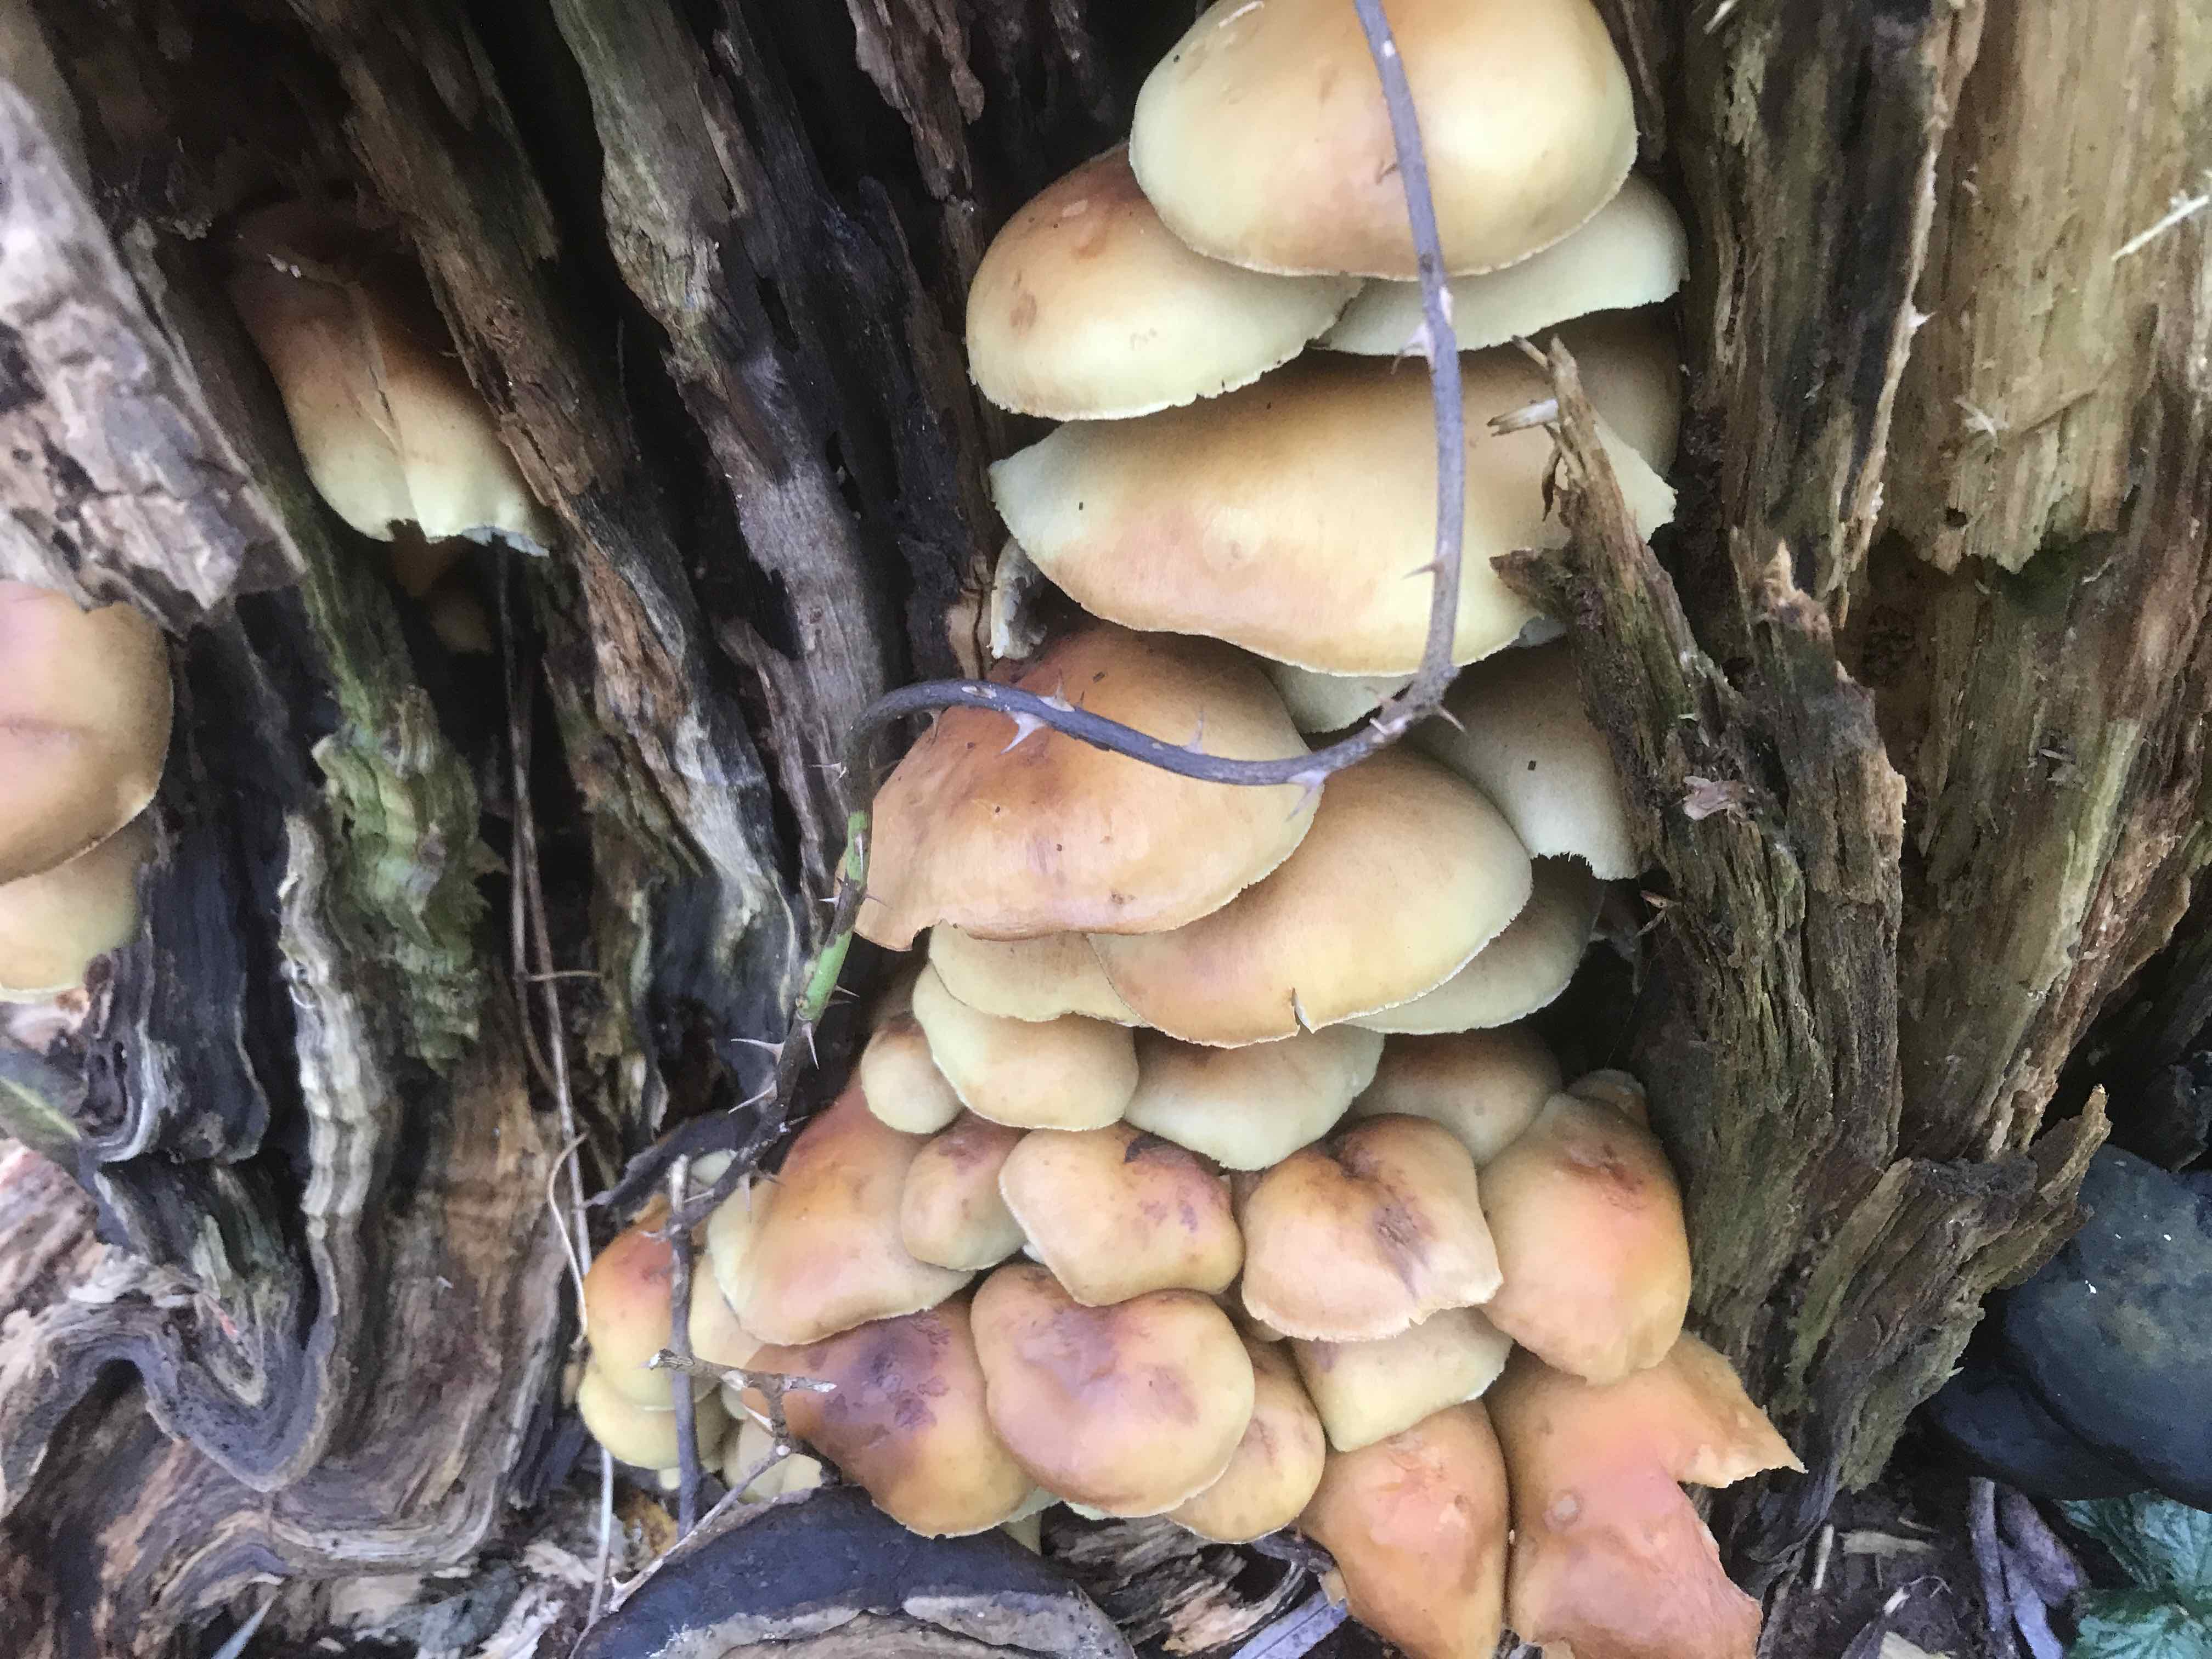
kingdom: Fungi
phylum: Basidiomycota
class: Agaricomycetes
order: Agaricales
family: Strophariaceae
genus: Hypholoma
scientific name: Hypholoma fasciculare
